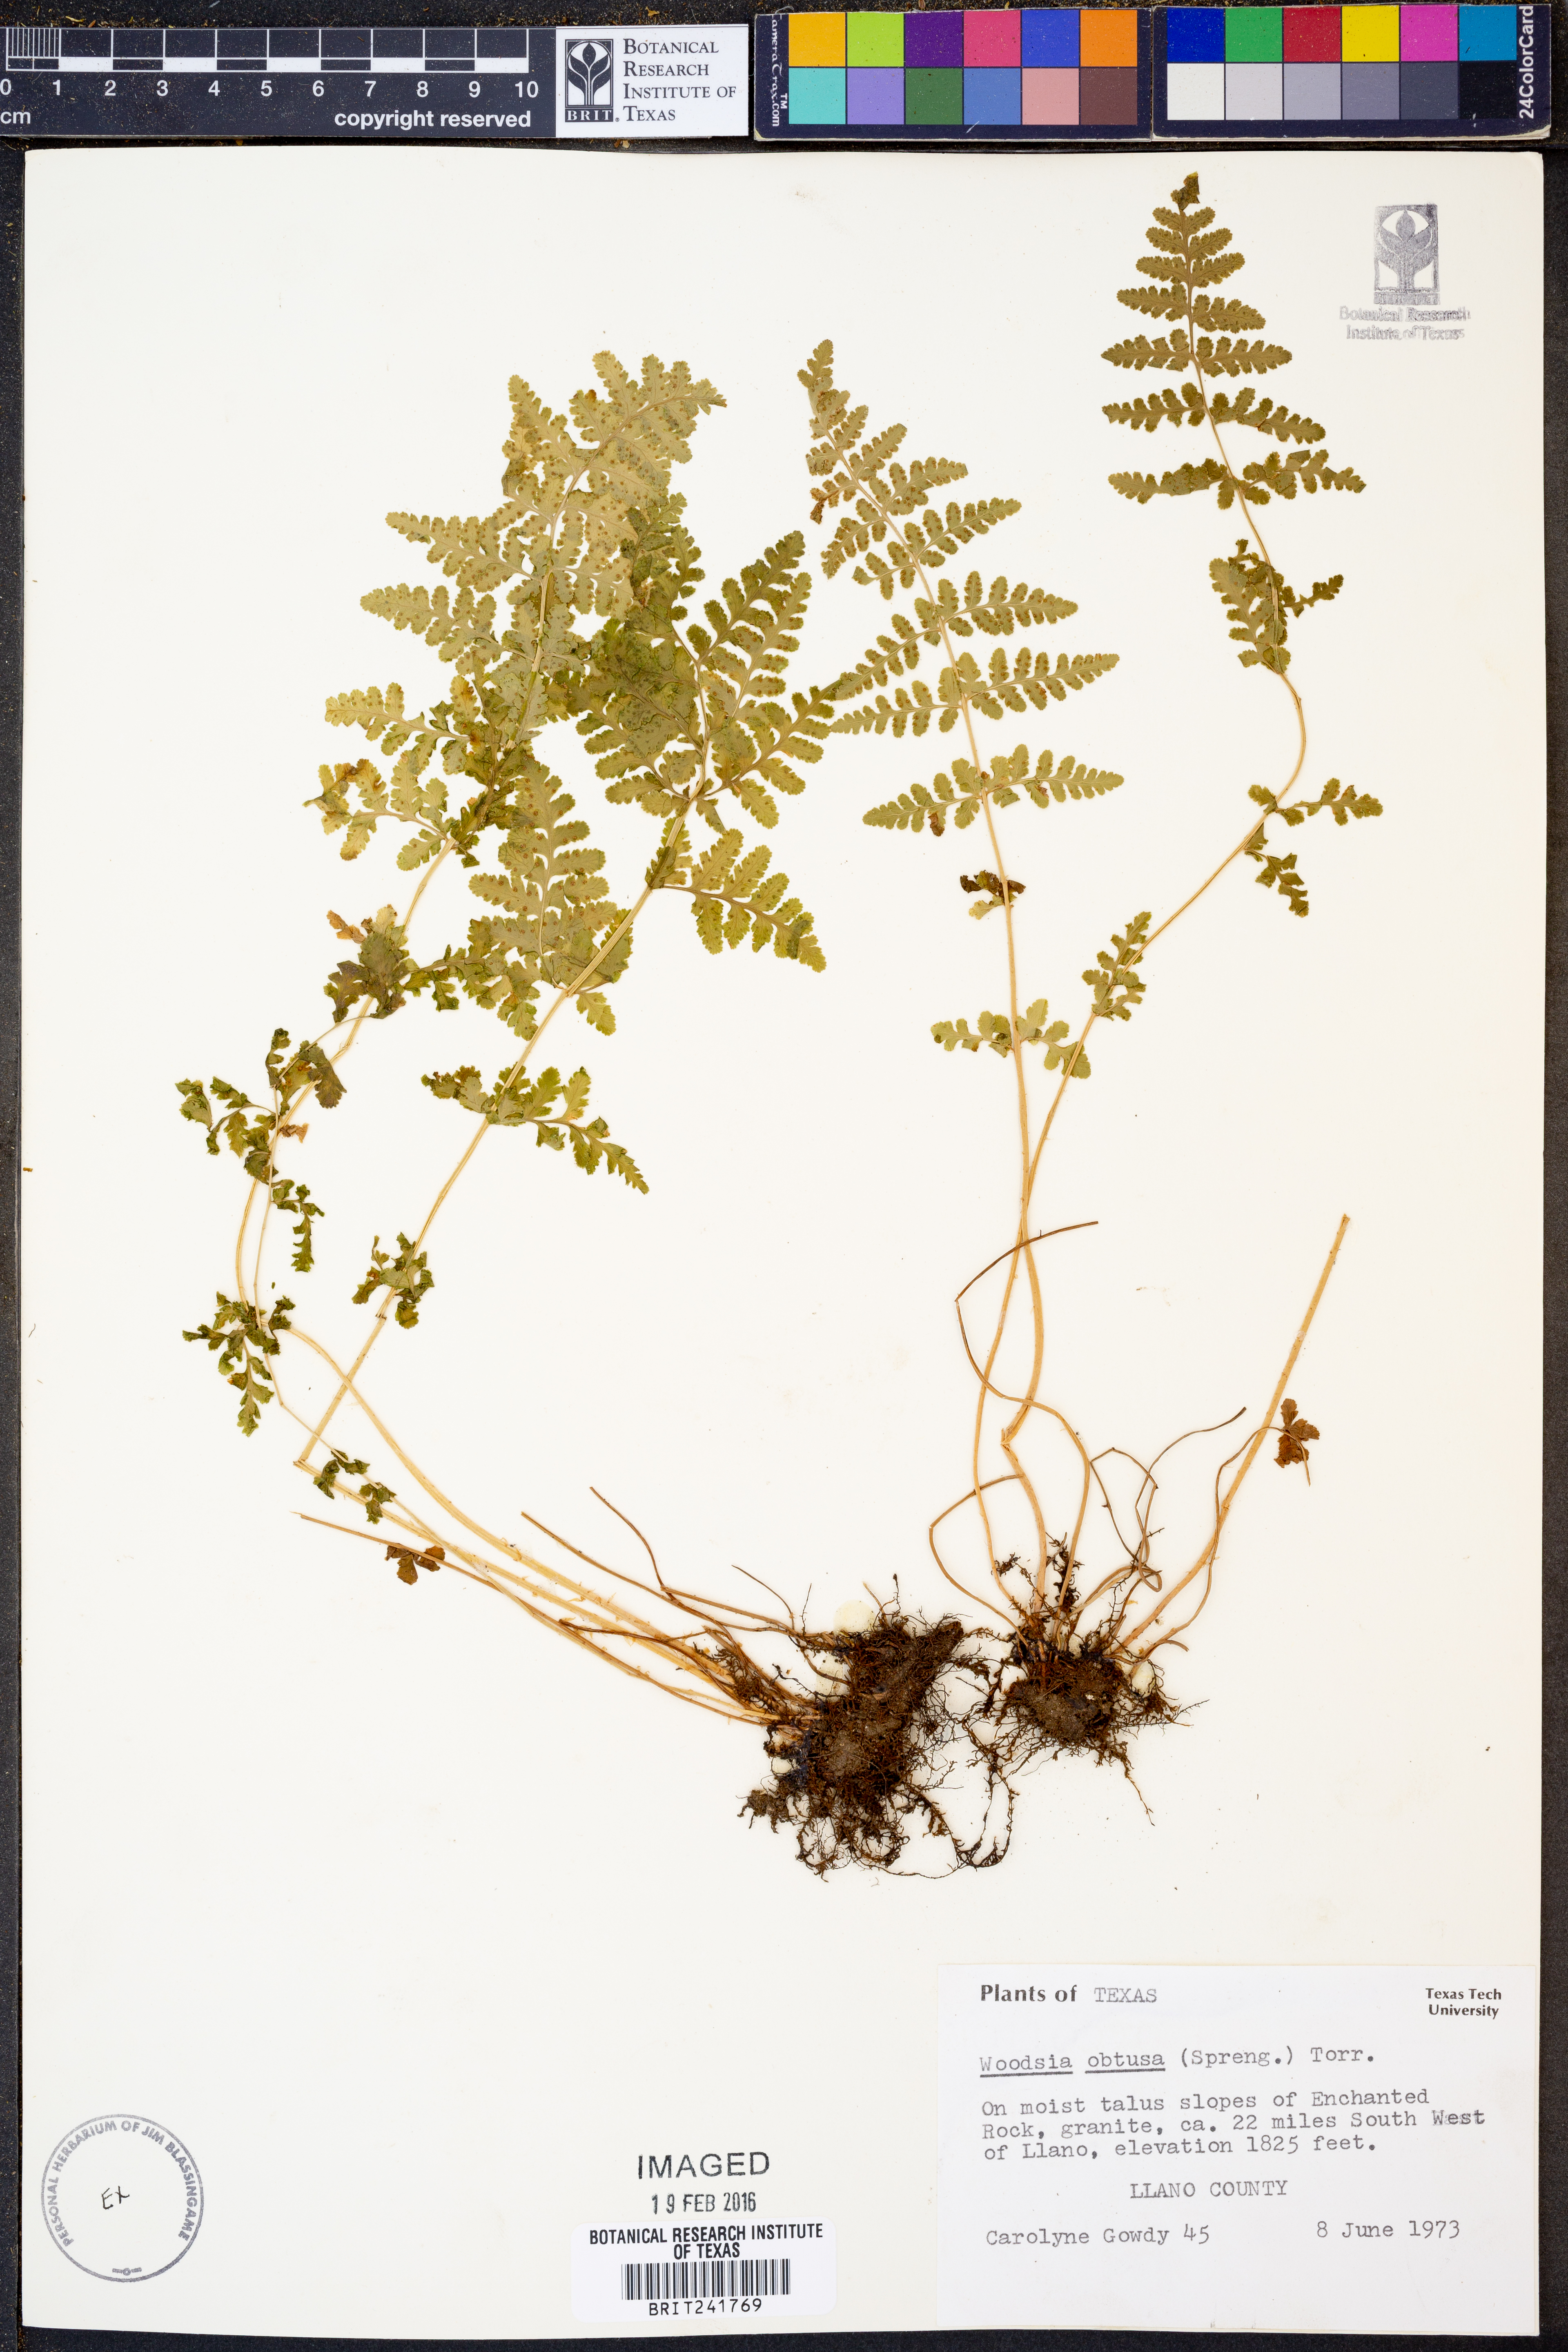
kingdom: Plantae
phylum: Tracheophyta
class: Polypodiopsida
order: Polypodiales
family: Woodsiaceae
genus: Physematium
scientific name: Physematium obtusum
